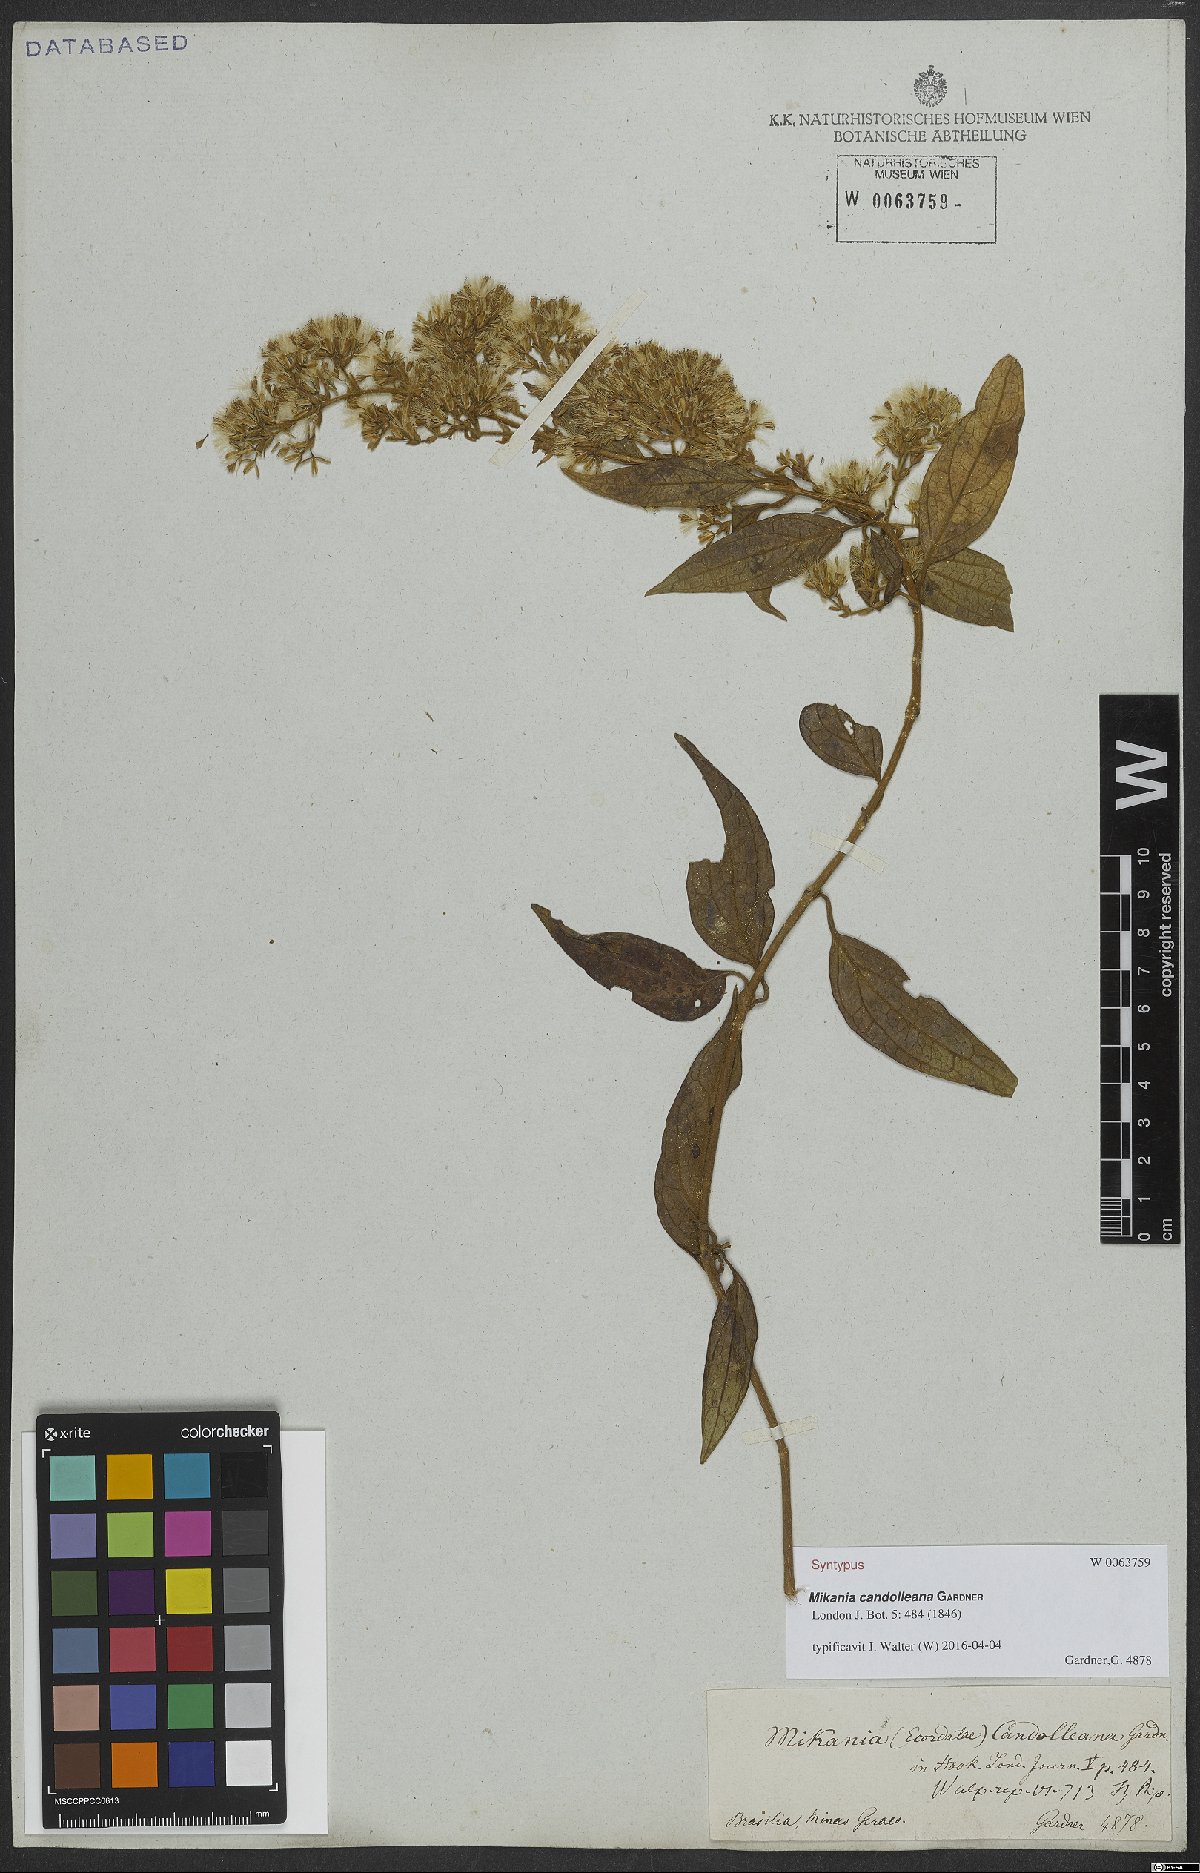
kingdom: Plantae
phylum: Tracheophyta
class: Magnoliopsida
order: Asterales
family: Asteraceae
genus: Mikania
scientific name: Mikania candolleana
